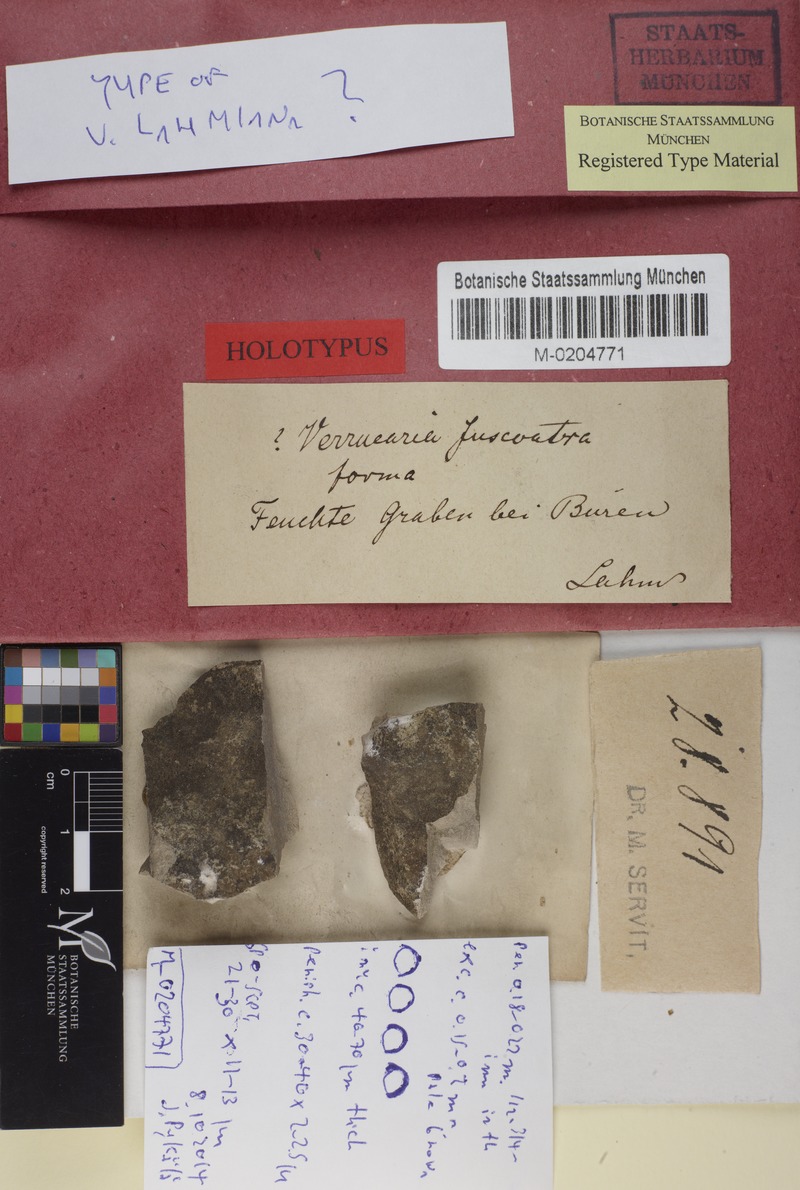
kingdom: Fungi
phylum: Ascomycota
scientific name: Ascomycota
